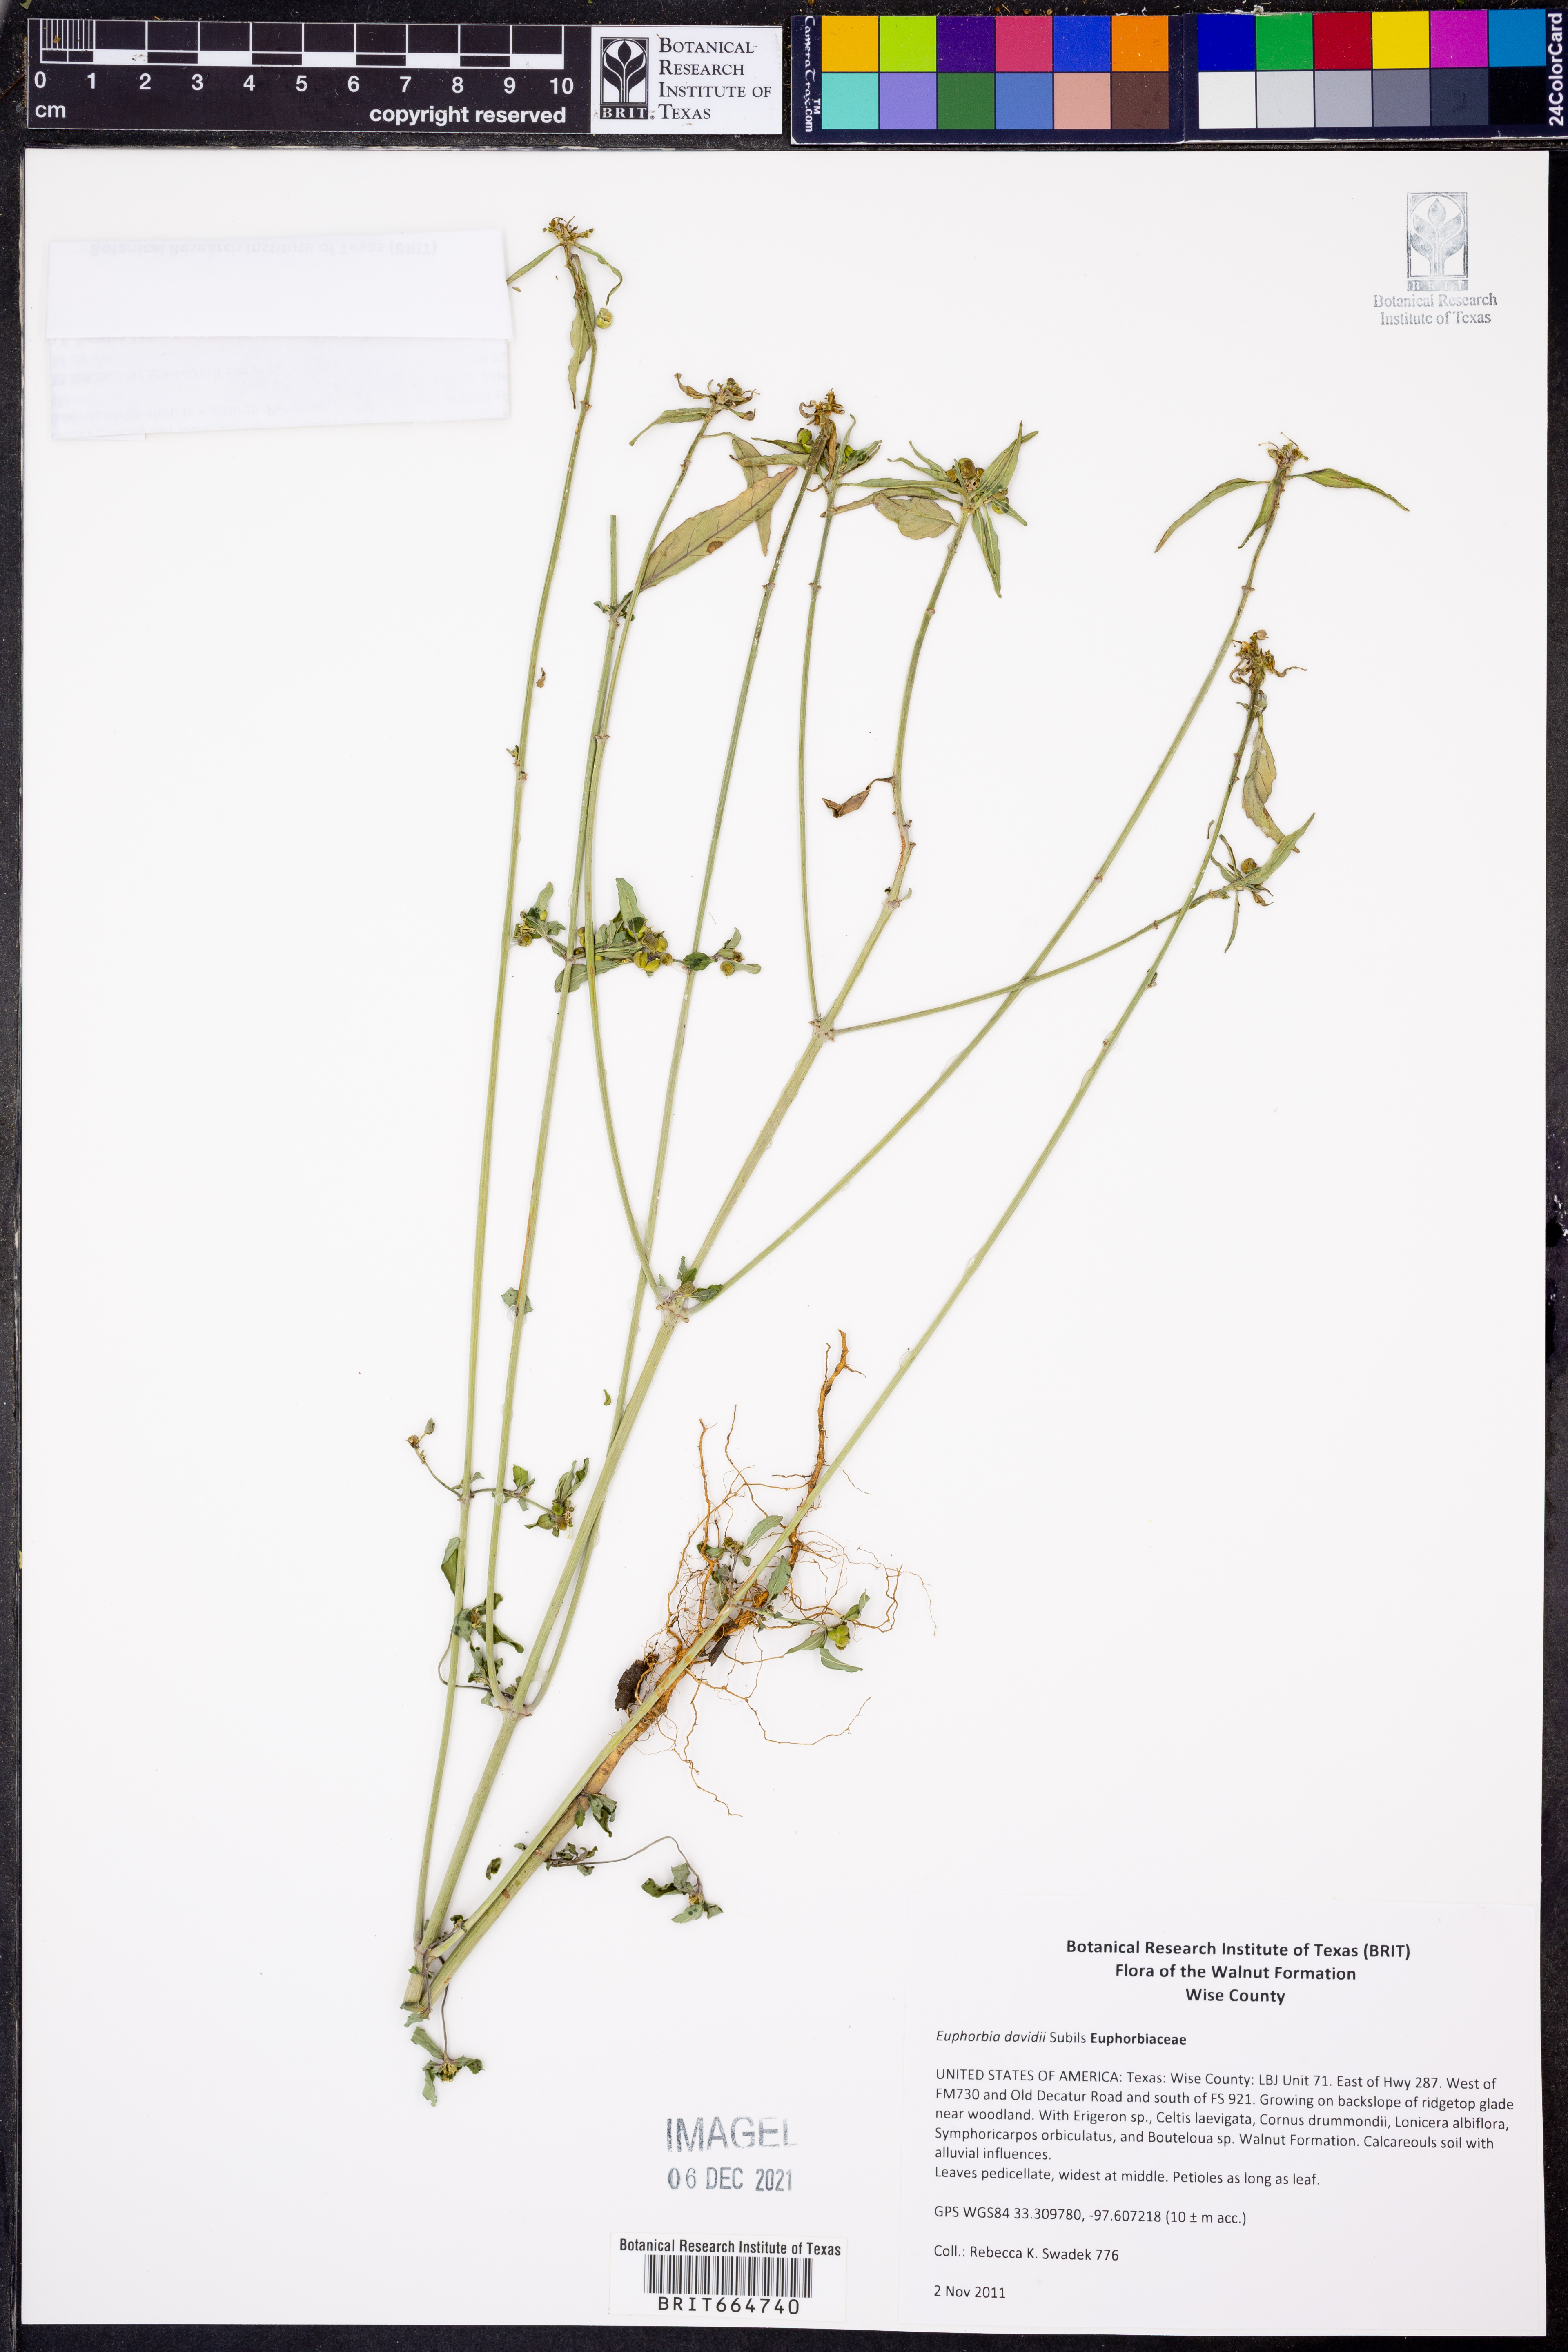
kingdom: Plantae
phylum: Tracheophyta
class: Magnoliopsida
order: Malpighiales
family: Euphorbiaceae
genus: Euphorbia
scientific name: Euphorbia davidii
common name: David's spurge
